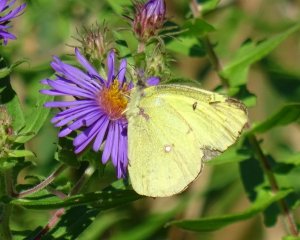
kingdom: Animalia
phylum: Arthropoda
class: Insecta
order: Lepidoptera
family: Pieridae
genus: Colias
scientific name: Colias philodice
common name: Clouded Sulphur
